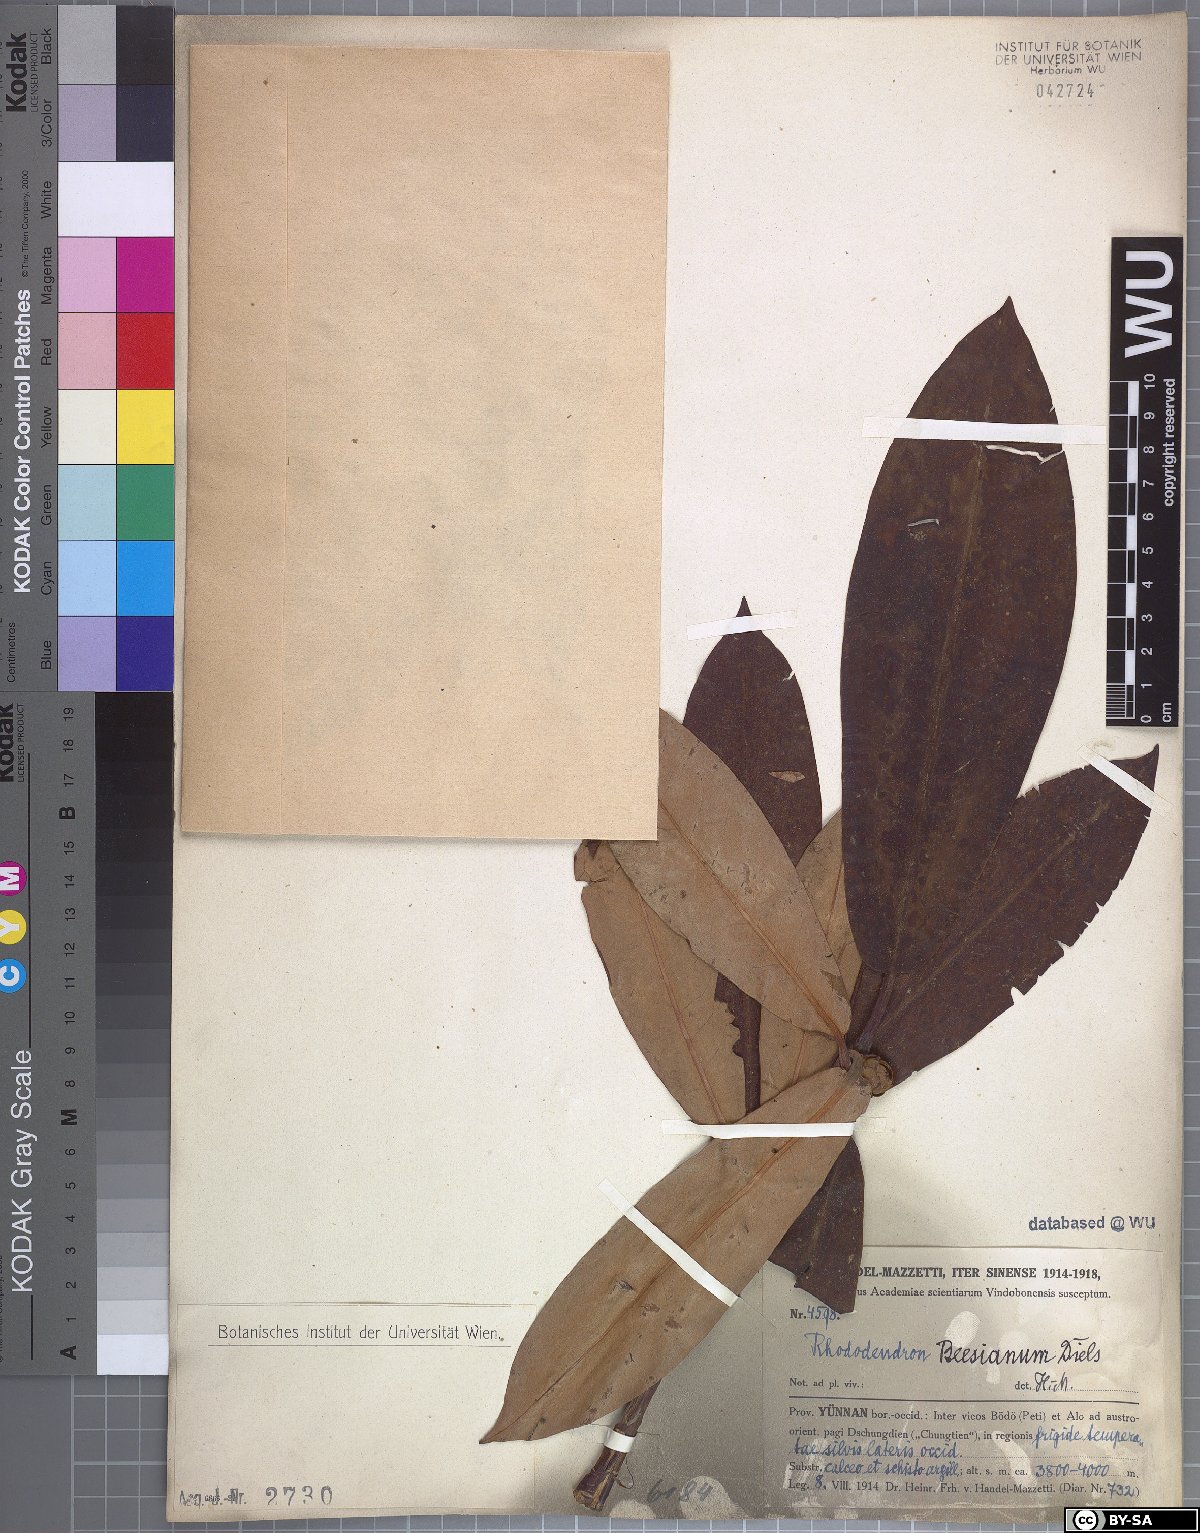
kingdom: Plantae
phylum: Tracheophyta
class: Magnoliopsida
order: Ericales
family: Ericaceae
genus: Rhododendron
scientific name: Rhododendron beesianum
